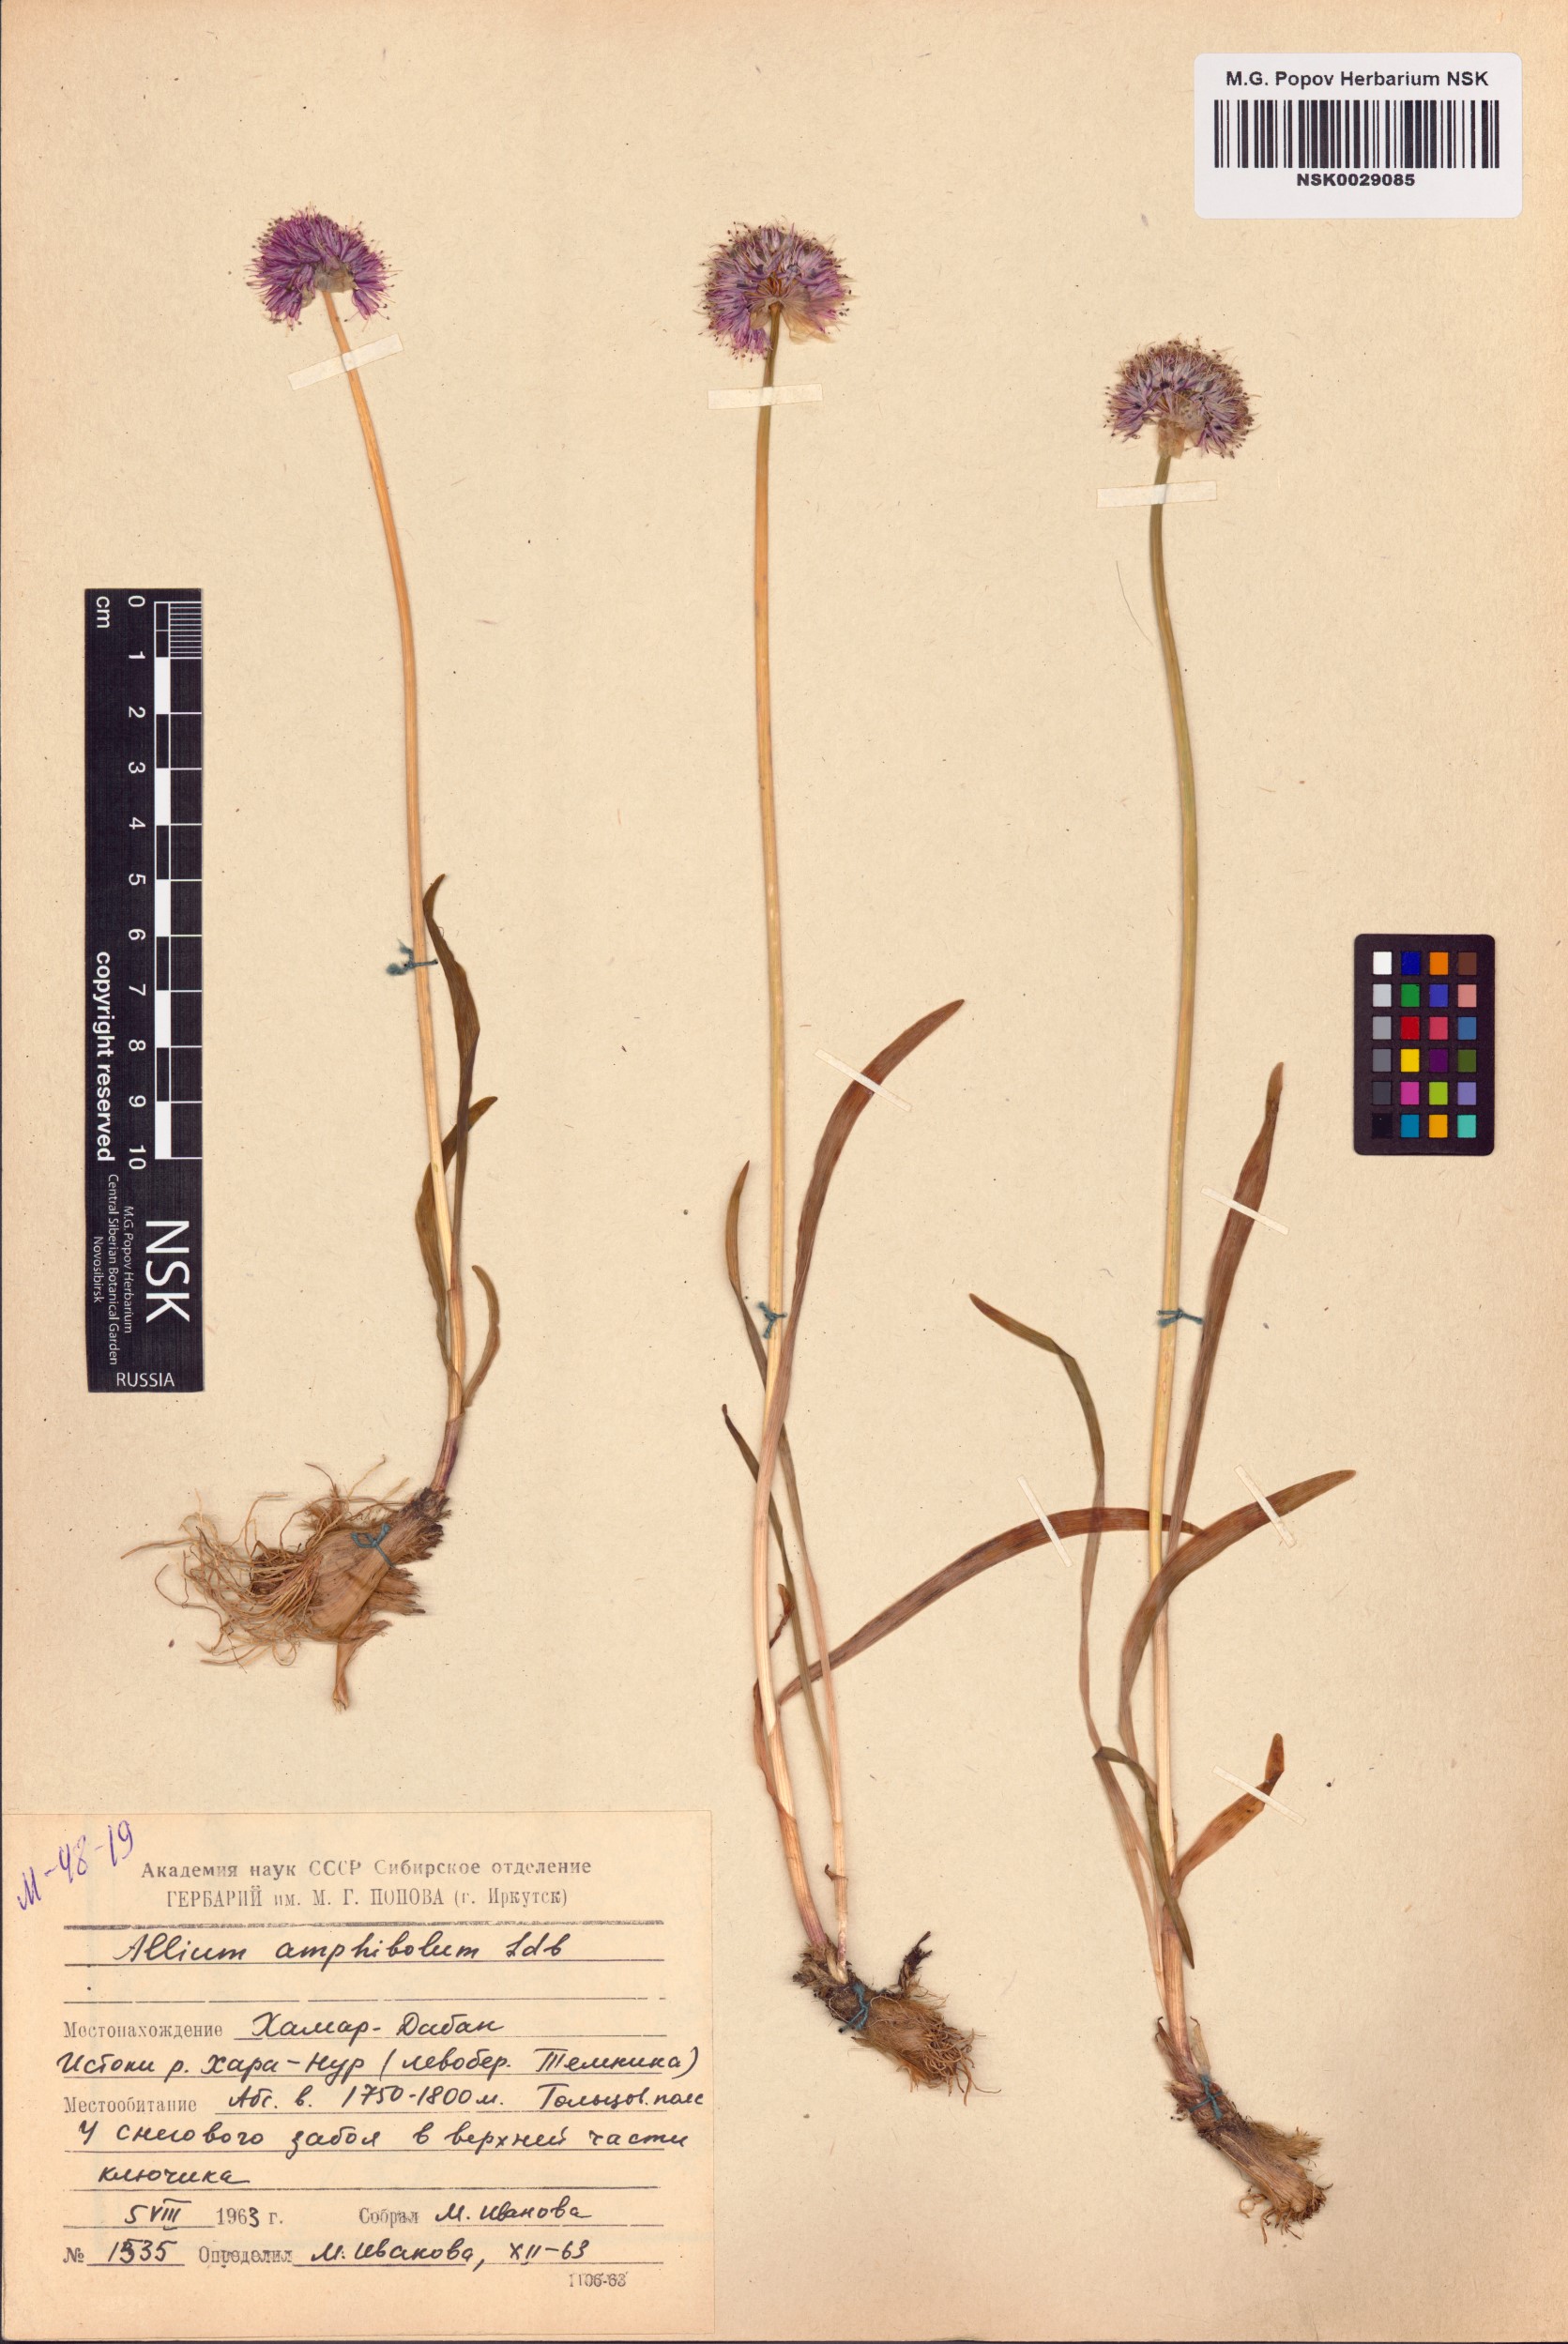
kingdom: Plantae
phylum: Tracheophyta
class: Liliopsida
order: Asparagales
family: Amaryllidaceae
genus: Allium
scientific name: Allium amphibolum
